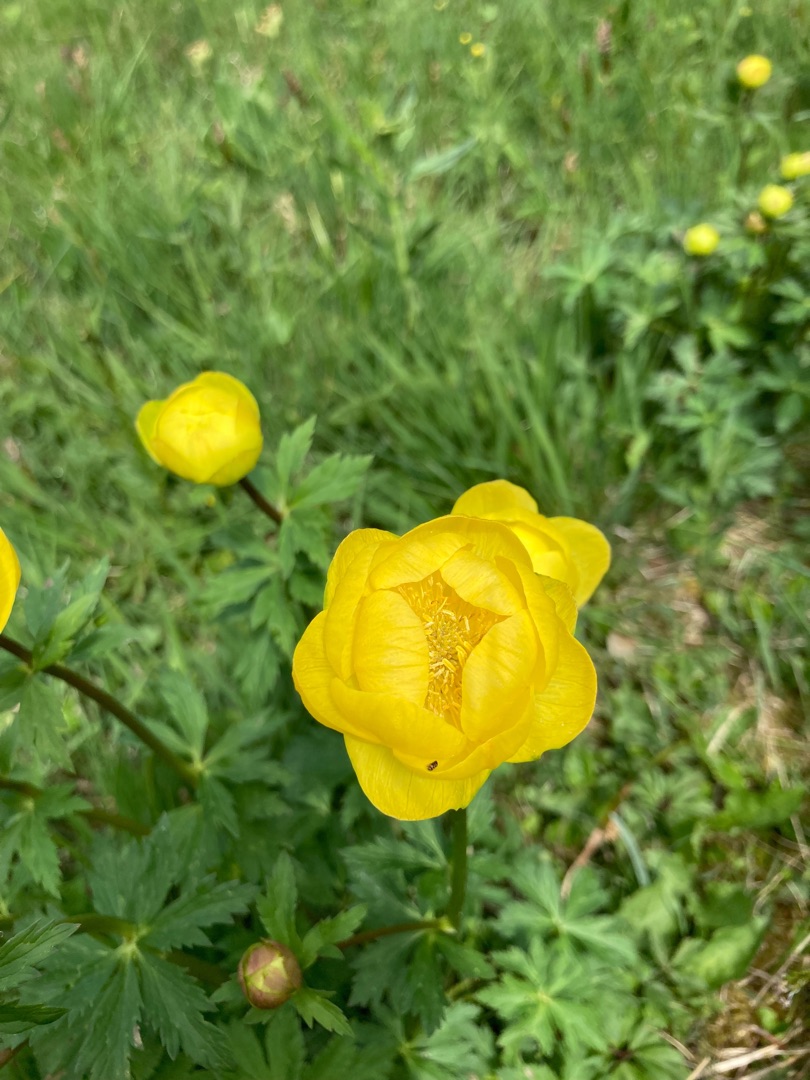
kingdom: Plantae
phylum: Tracheophyta
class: Magnoliopsida
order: Ranunculales
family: Ranunculaceae
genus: Trollius
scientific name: Trollius europaeus
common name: Engblomme
